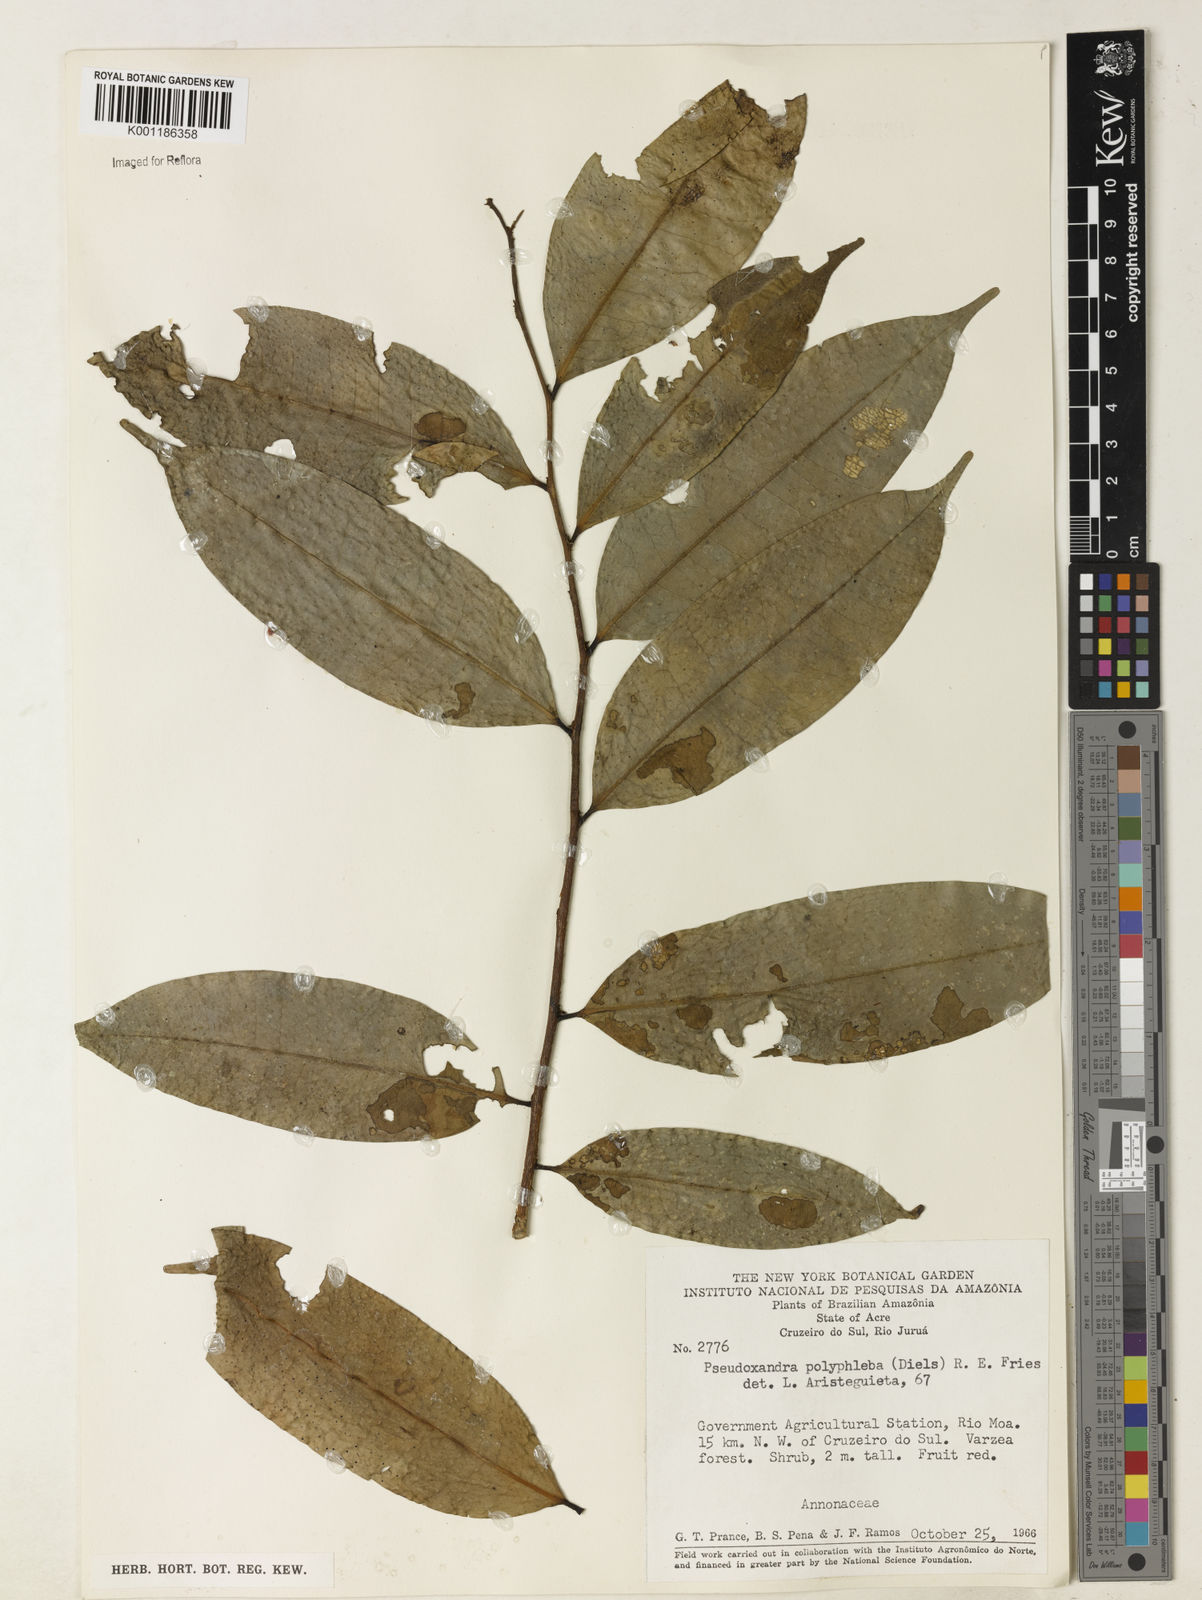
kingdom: Plantae
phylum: Tracheophyta
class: Magnoliopsida
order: Magnoliales
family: Annonaceae
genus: Pseudoxandra
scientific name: Pseudoxandra polyphleba
